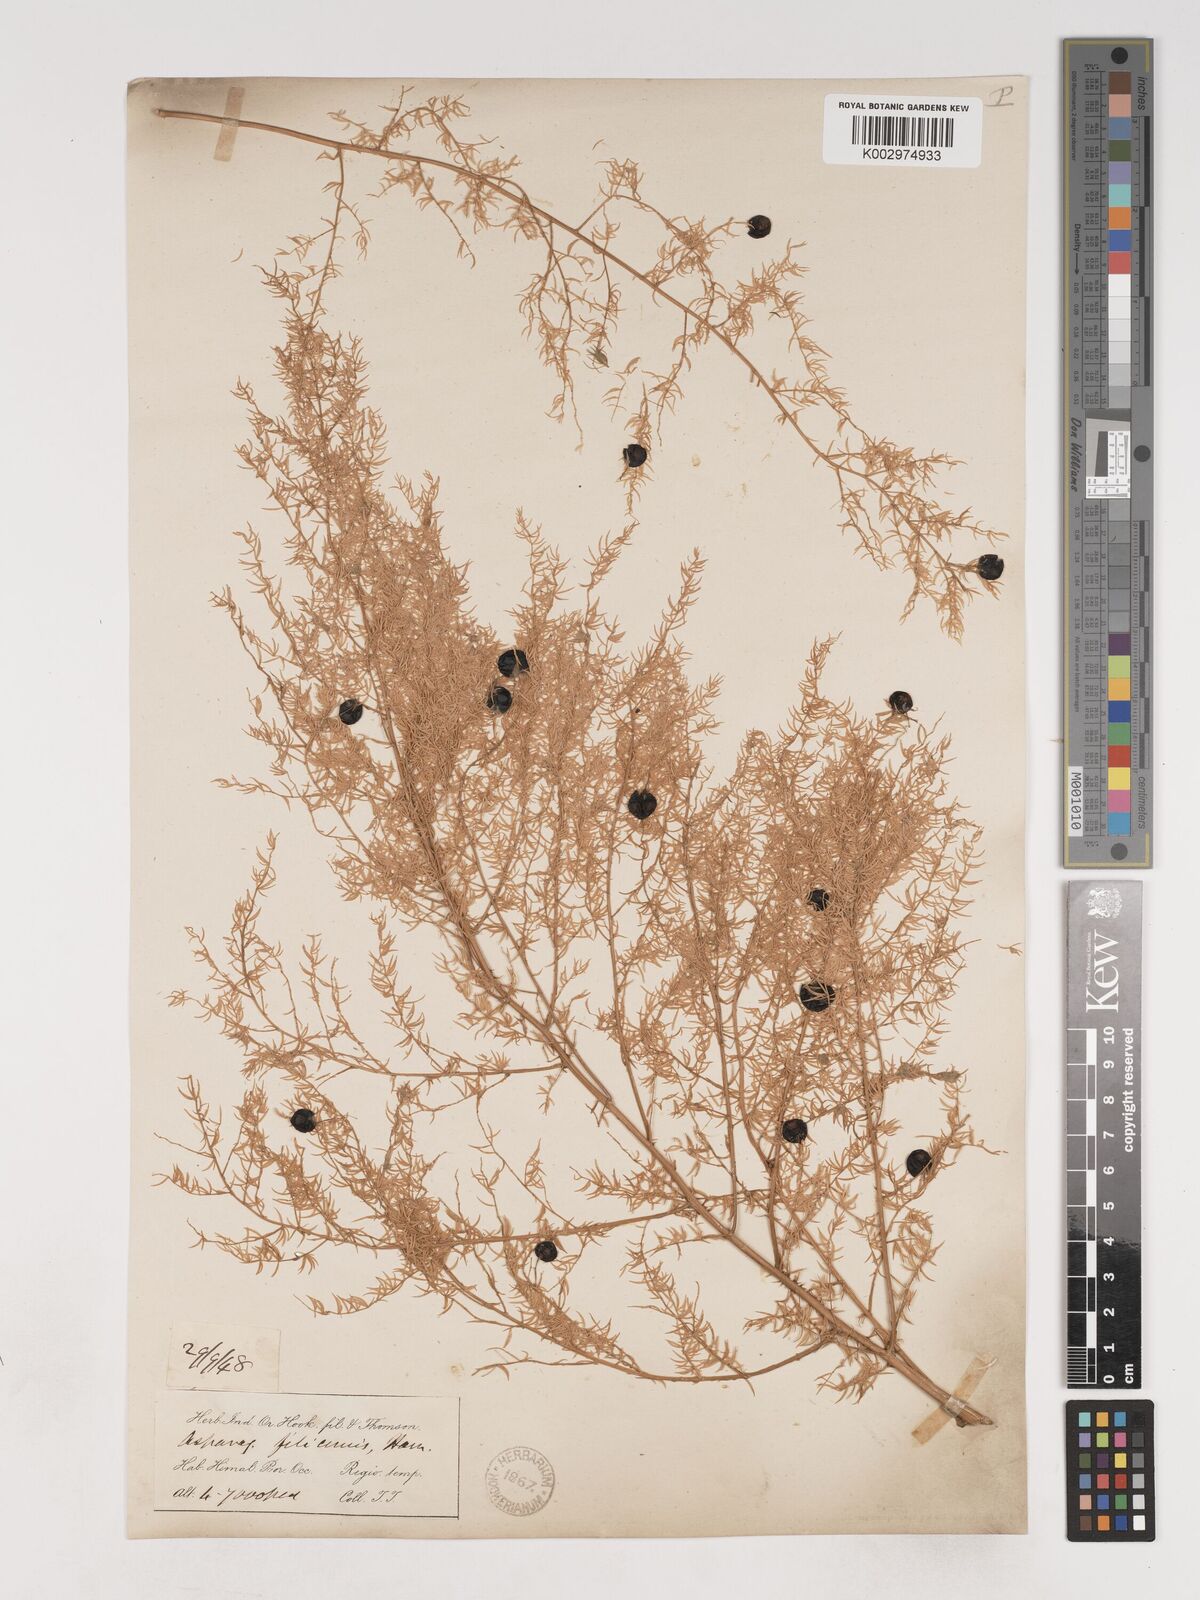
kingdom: Plantae
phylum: Tracheophyta
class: Liliopsida
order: Asparagales
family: Asparagaceae
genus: Asparagus
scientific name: Asparagus filicinus
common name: Fern asparagus
